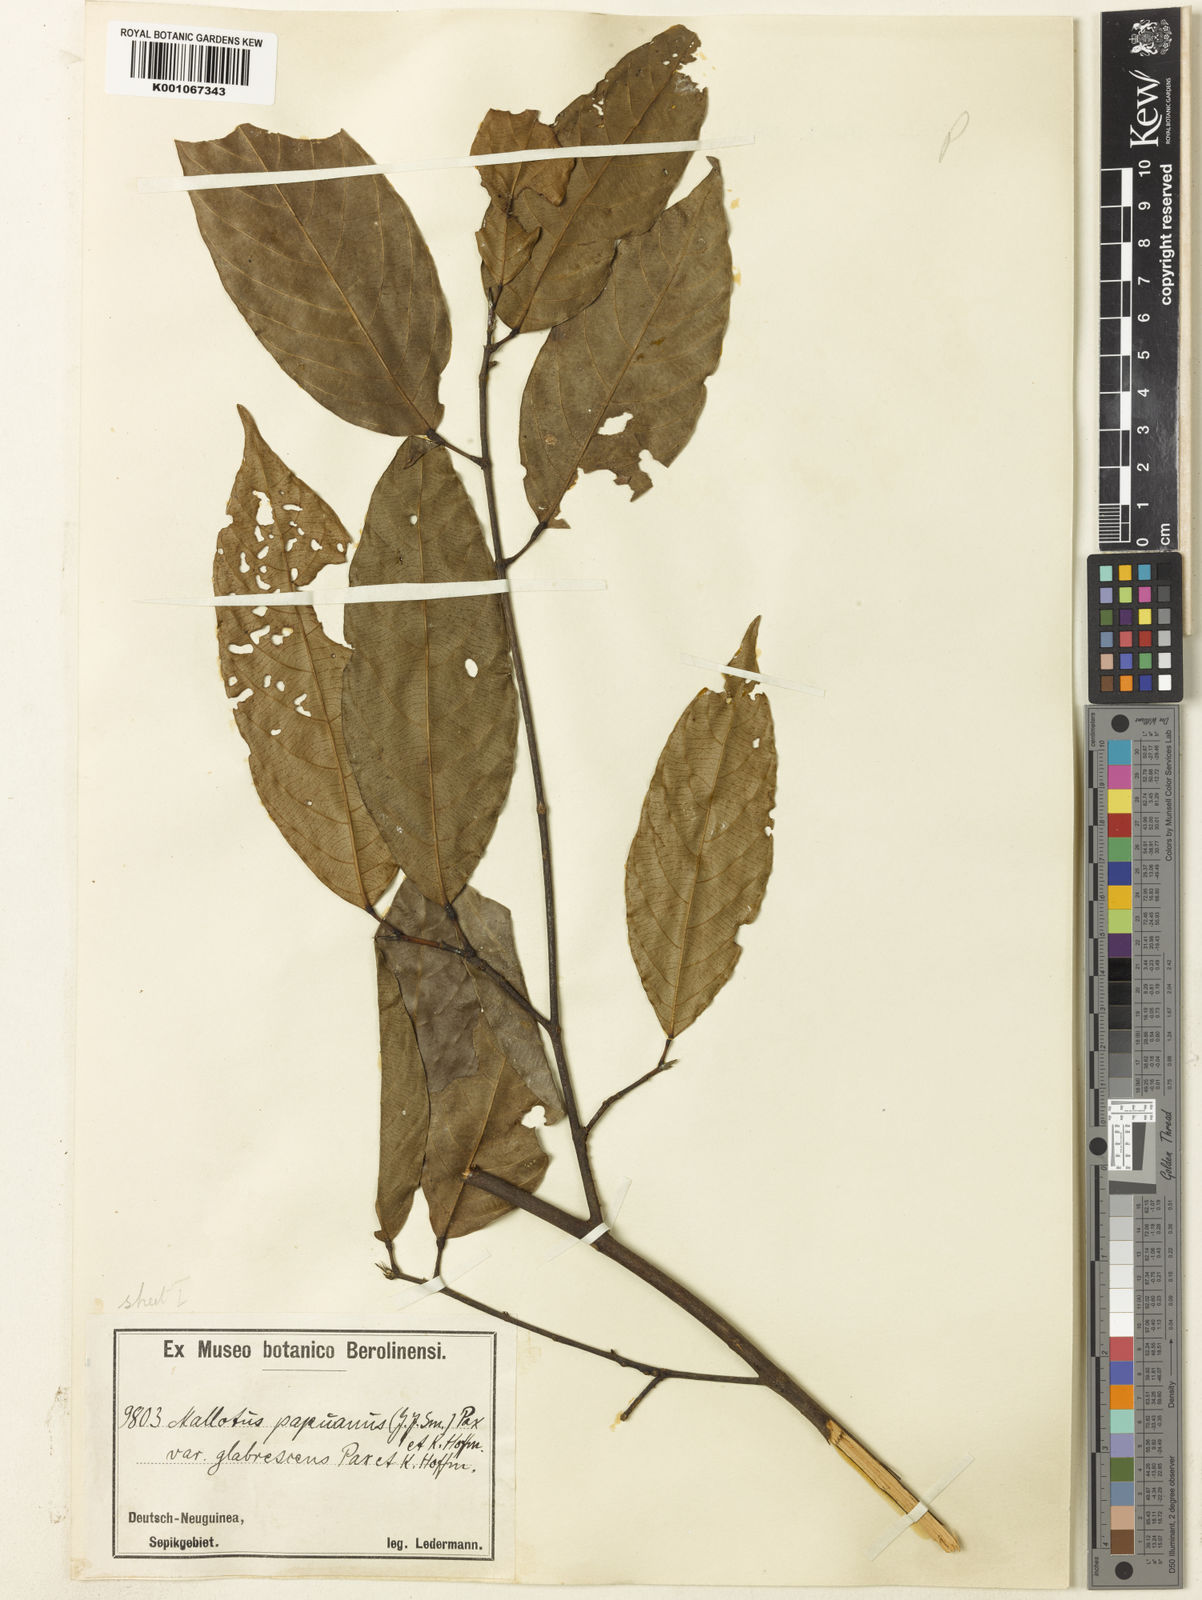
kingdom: Plantae
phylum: Tracheophyta
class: Magnoliopsida
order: Malpighiales
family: Euphorbiaceae
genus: Hancea
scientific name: Hancea papuana
